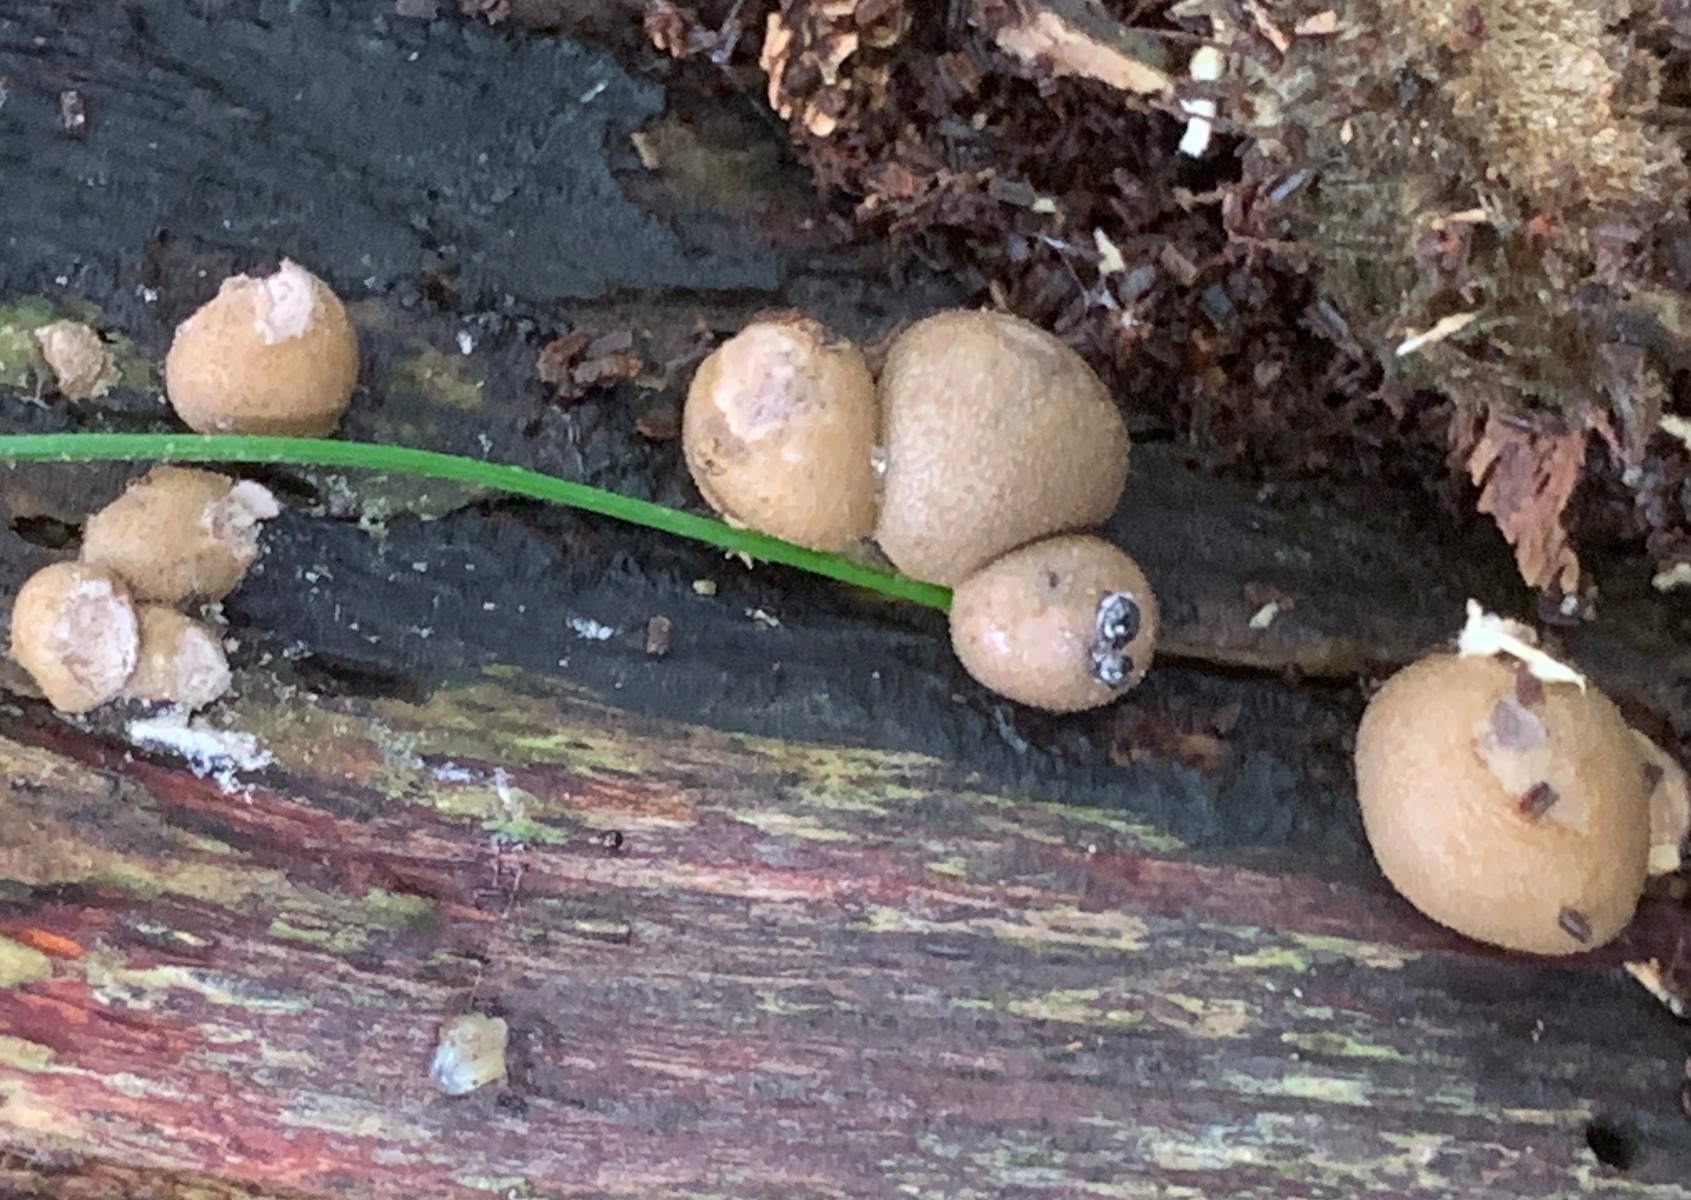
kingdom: Protozoa
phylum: Mycetozoa
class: Myxomycetes
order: Cribrariales
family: Tubiferaceae
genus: Lycogala
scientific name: Lycogala epidendrum
